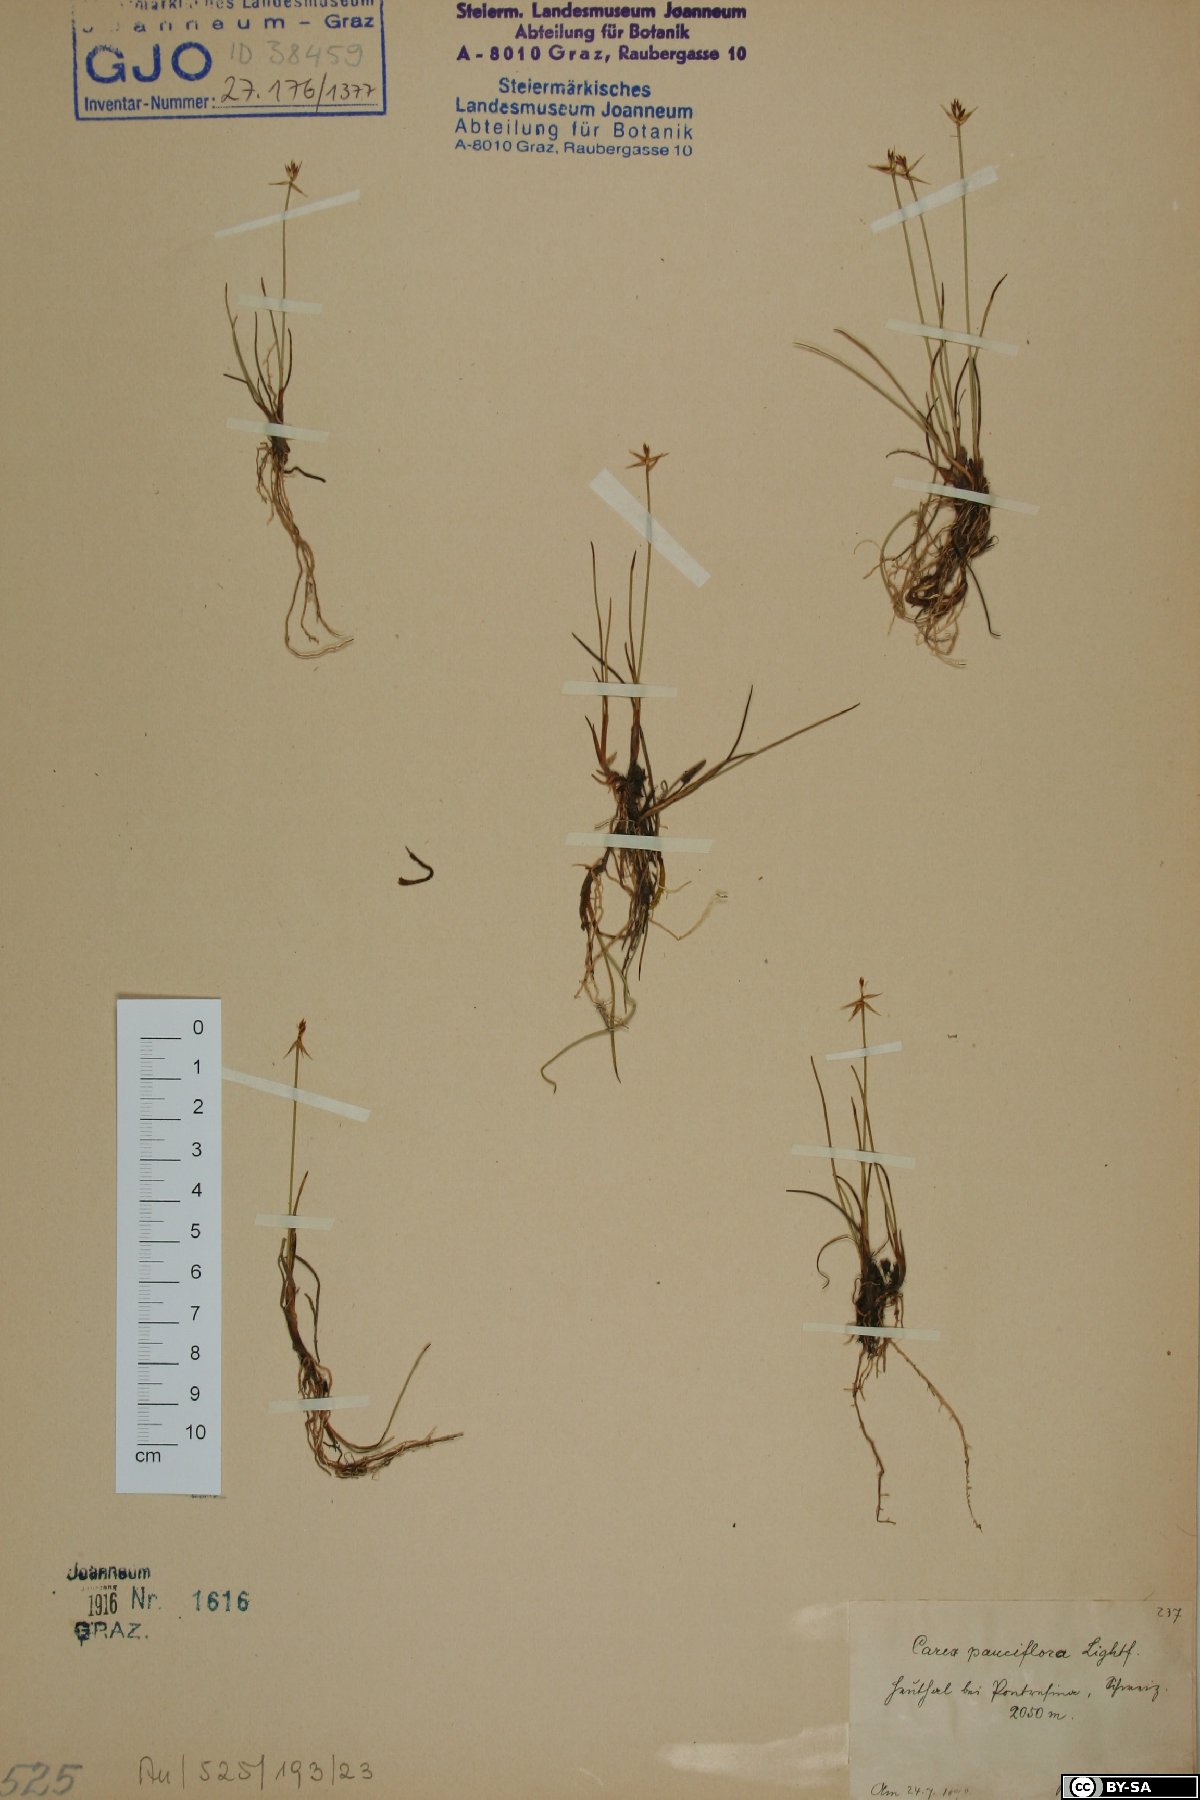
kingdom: Plantae
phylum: Tracheophyta
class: Liliopsida
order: Poales
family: Cyperaceae
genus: Carex
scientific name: Carex pauciflora
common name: Few-flowered sedge
